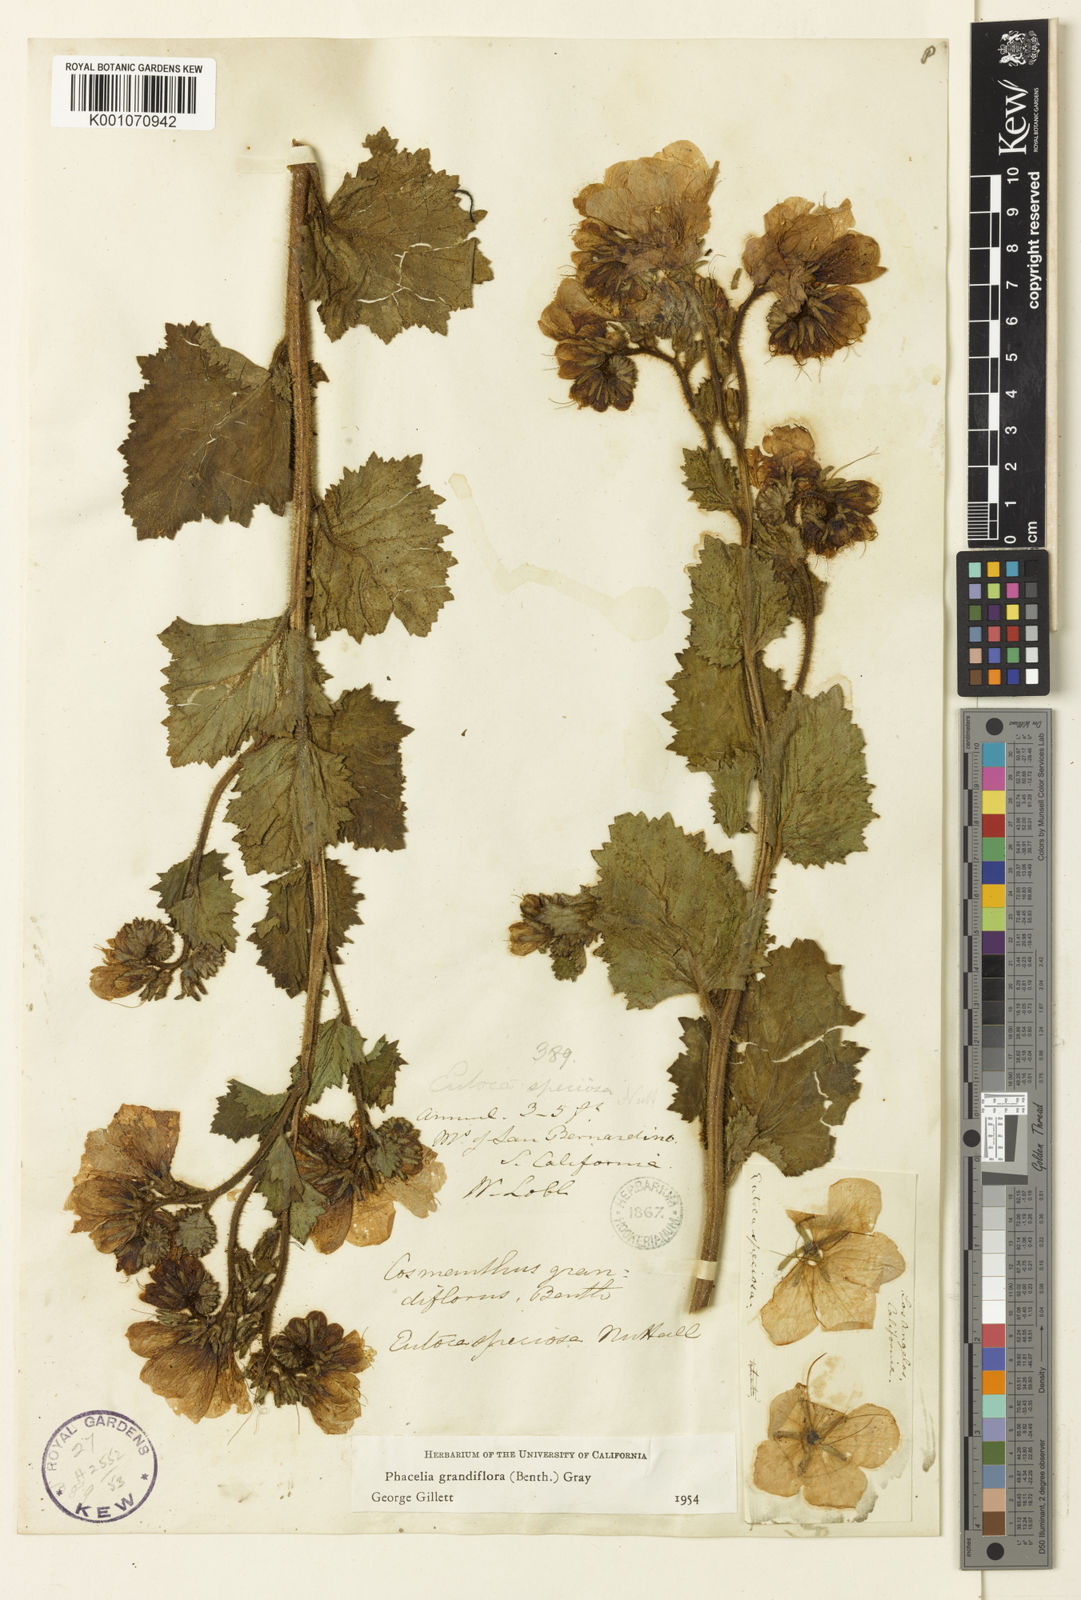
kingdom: Plantae
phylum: Tracheophyta
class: Magnoliopsida
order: Boraginales
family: Hydrophyllaceae
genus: Phacelia
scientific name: Phacelia grandiflora
